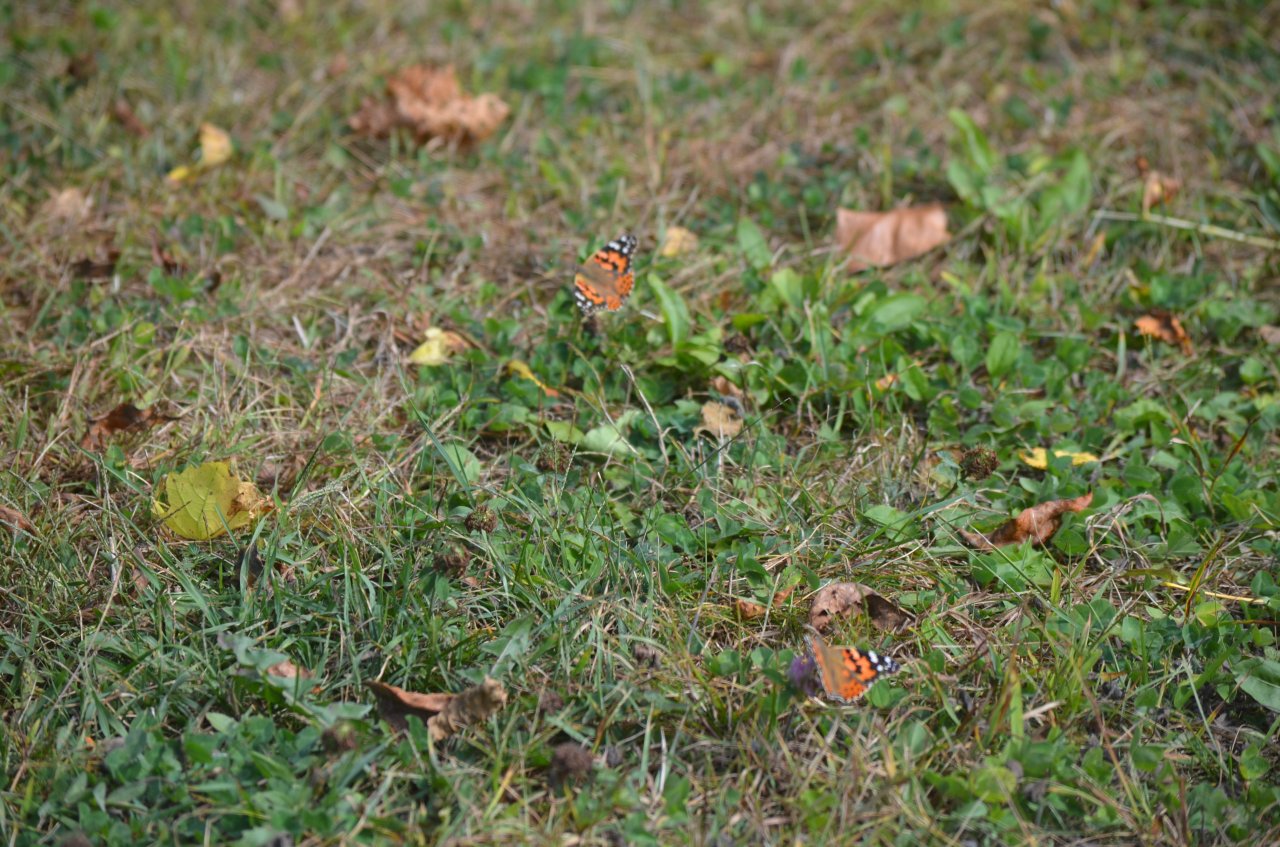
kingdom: Animalia
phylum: Arthropoda
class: Insecta
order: Lepidoptera
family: Nymphalidae
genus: Vanessa
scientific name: Vanessa cardui
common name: Painted Lady
